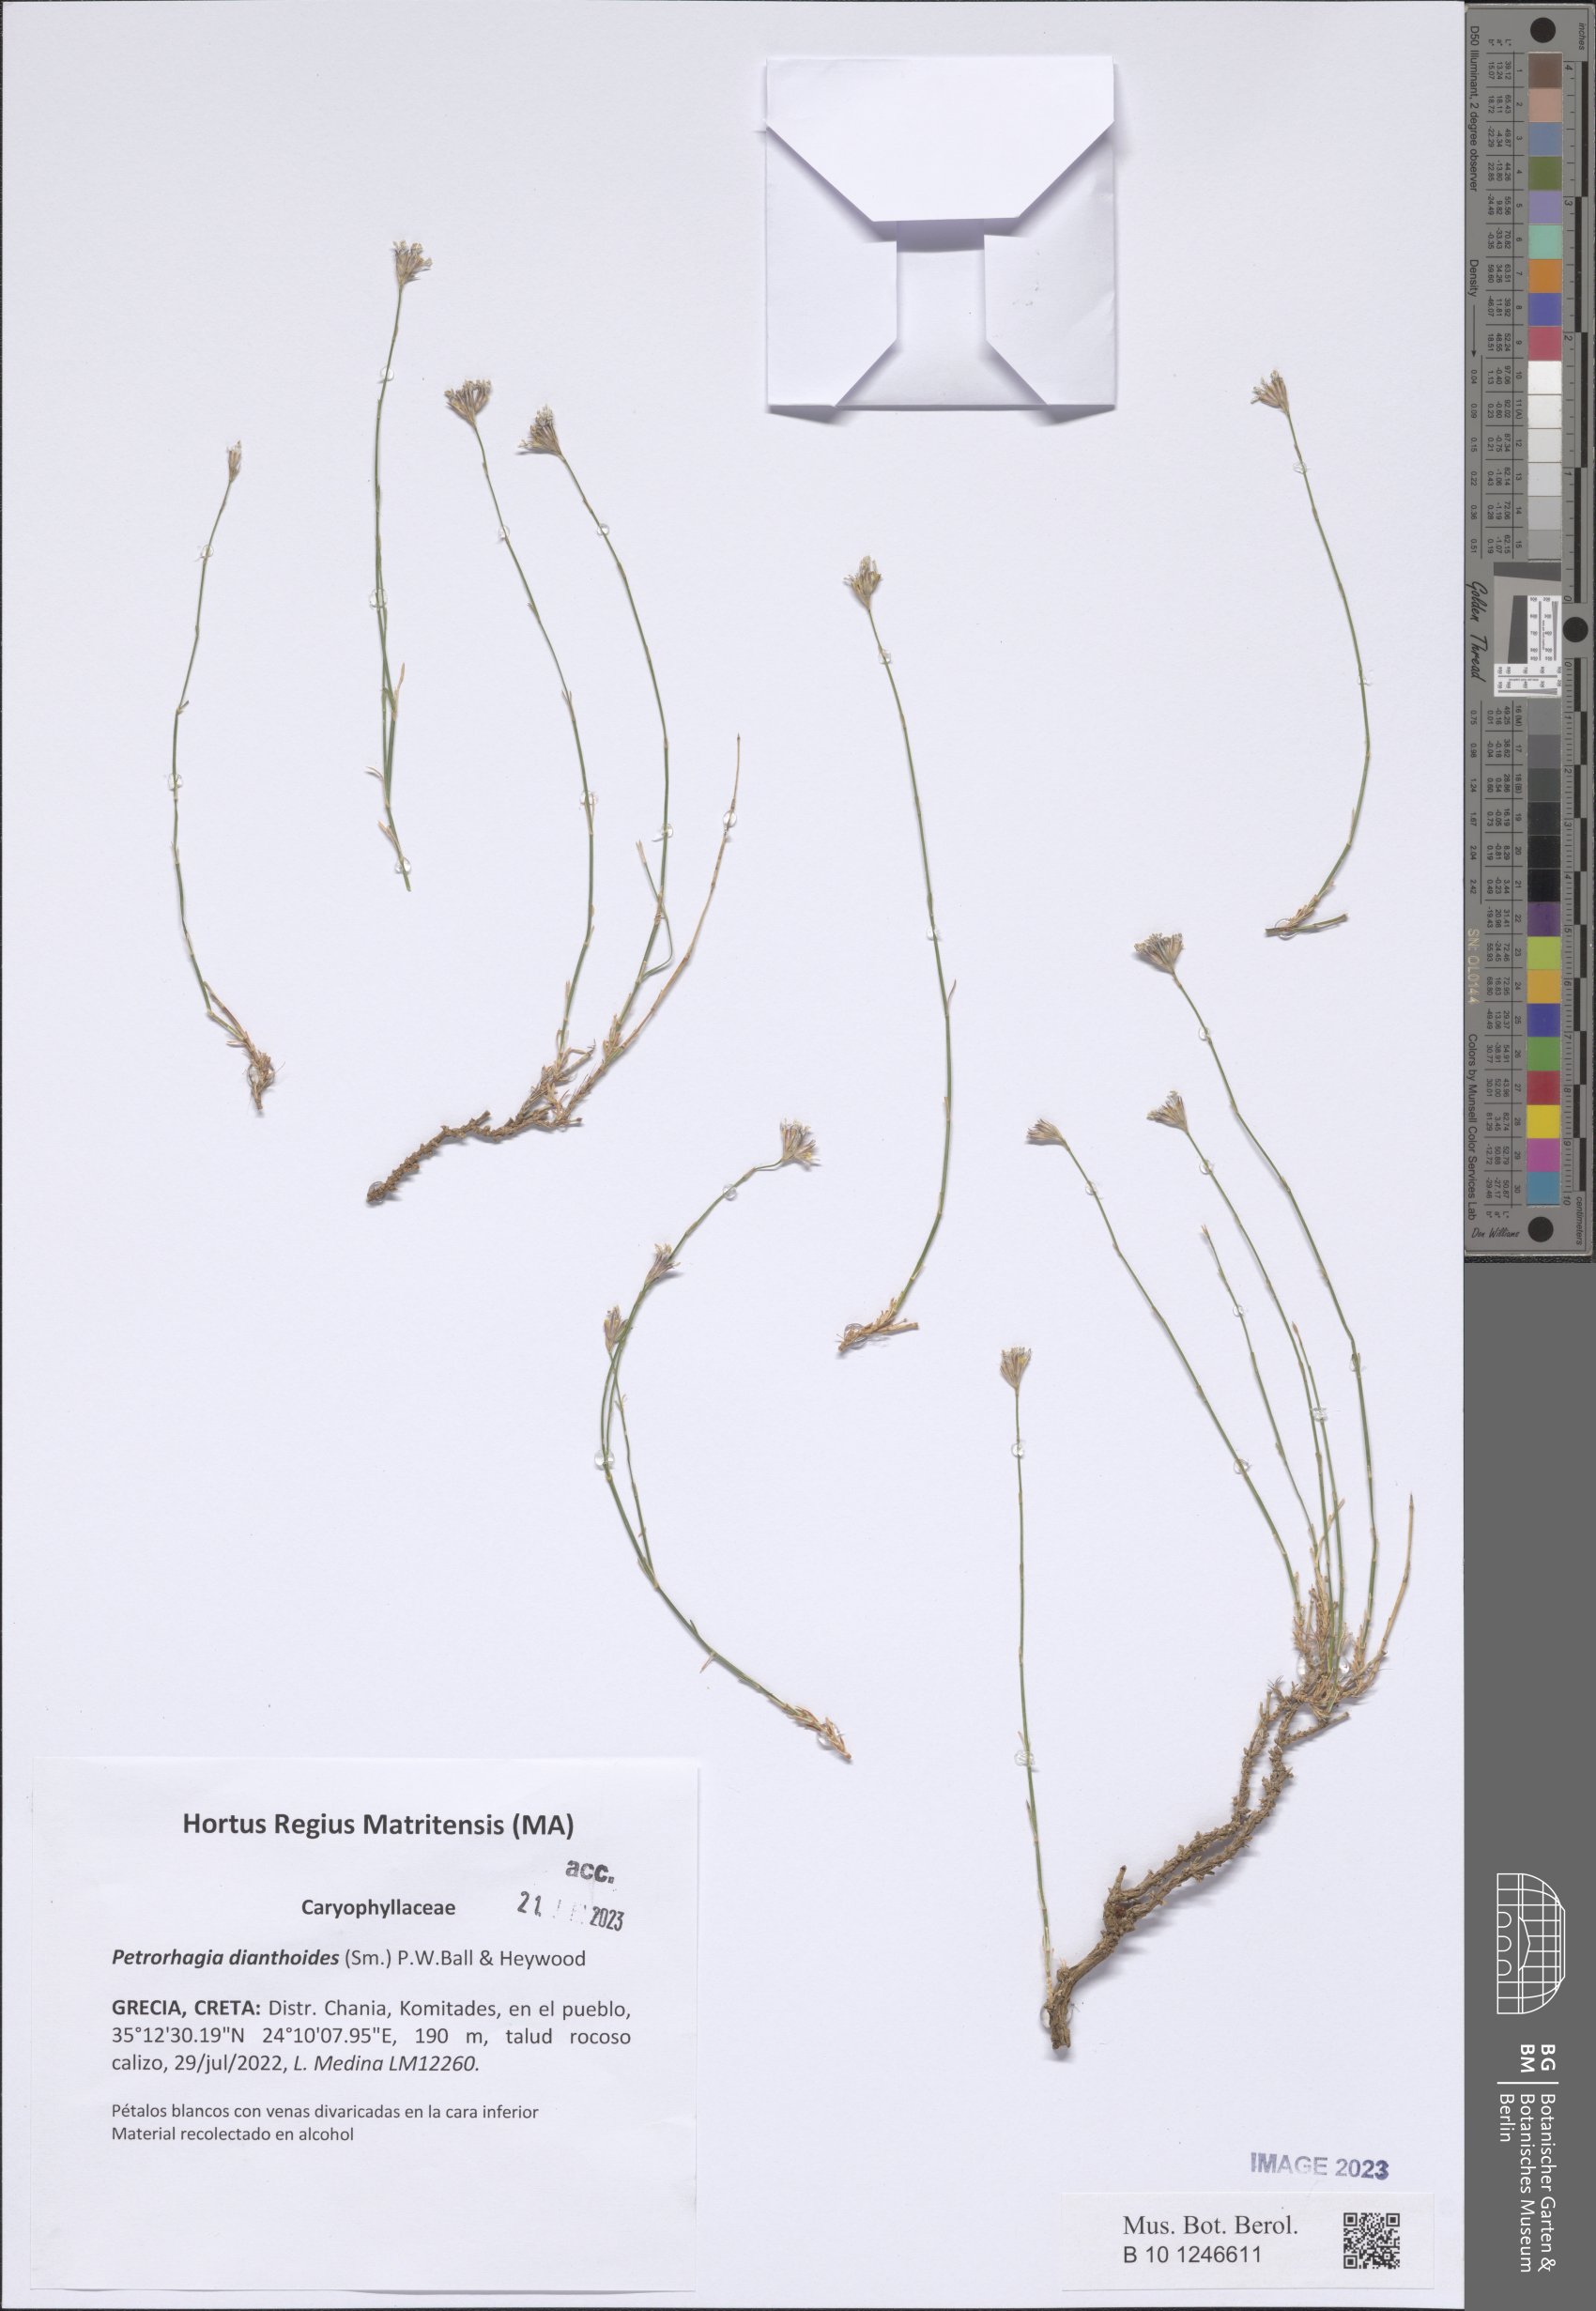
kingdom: Plantae
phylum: Tracheophyta
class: Magnoliopsida
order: Caryophyllales
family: Caryophyllaceae
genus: Petrorhagia
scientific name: Petrorhagia dianthoides
